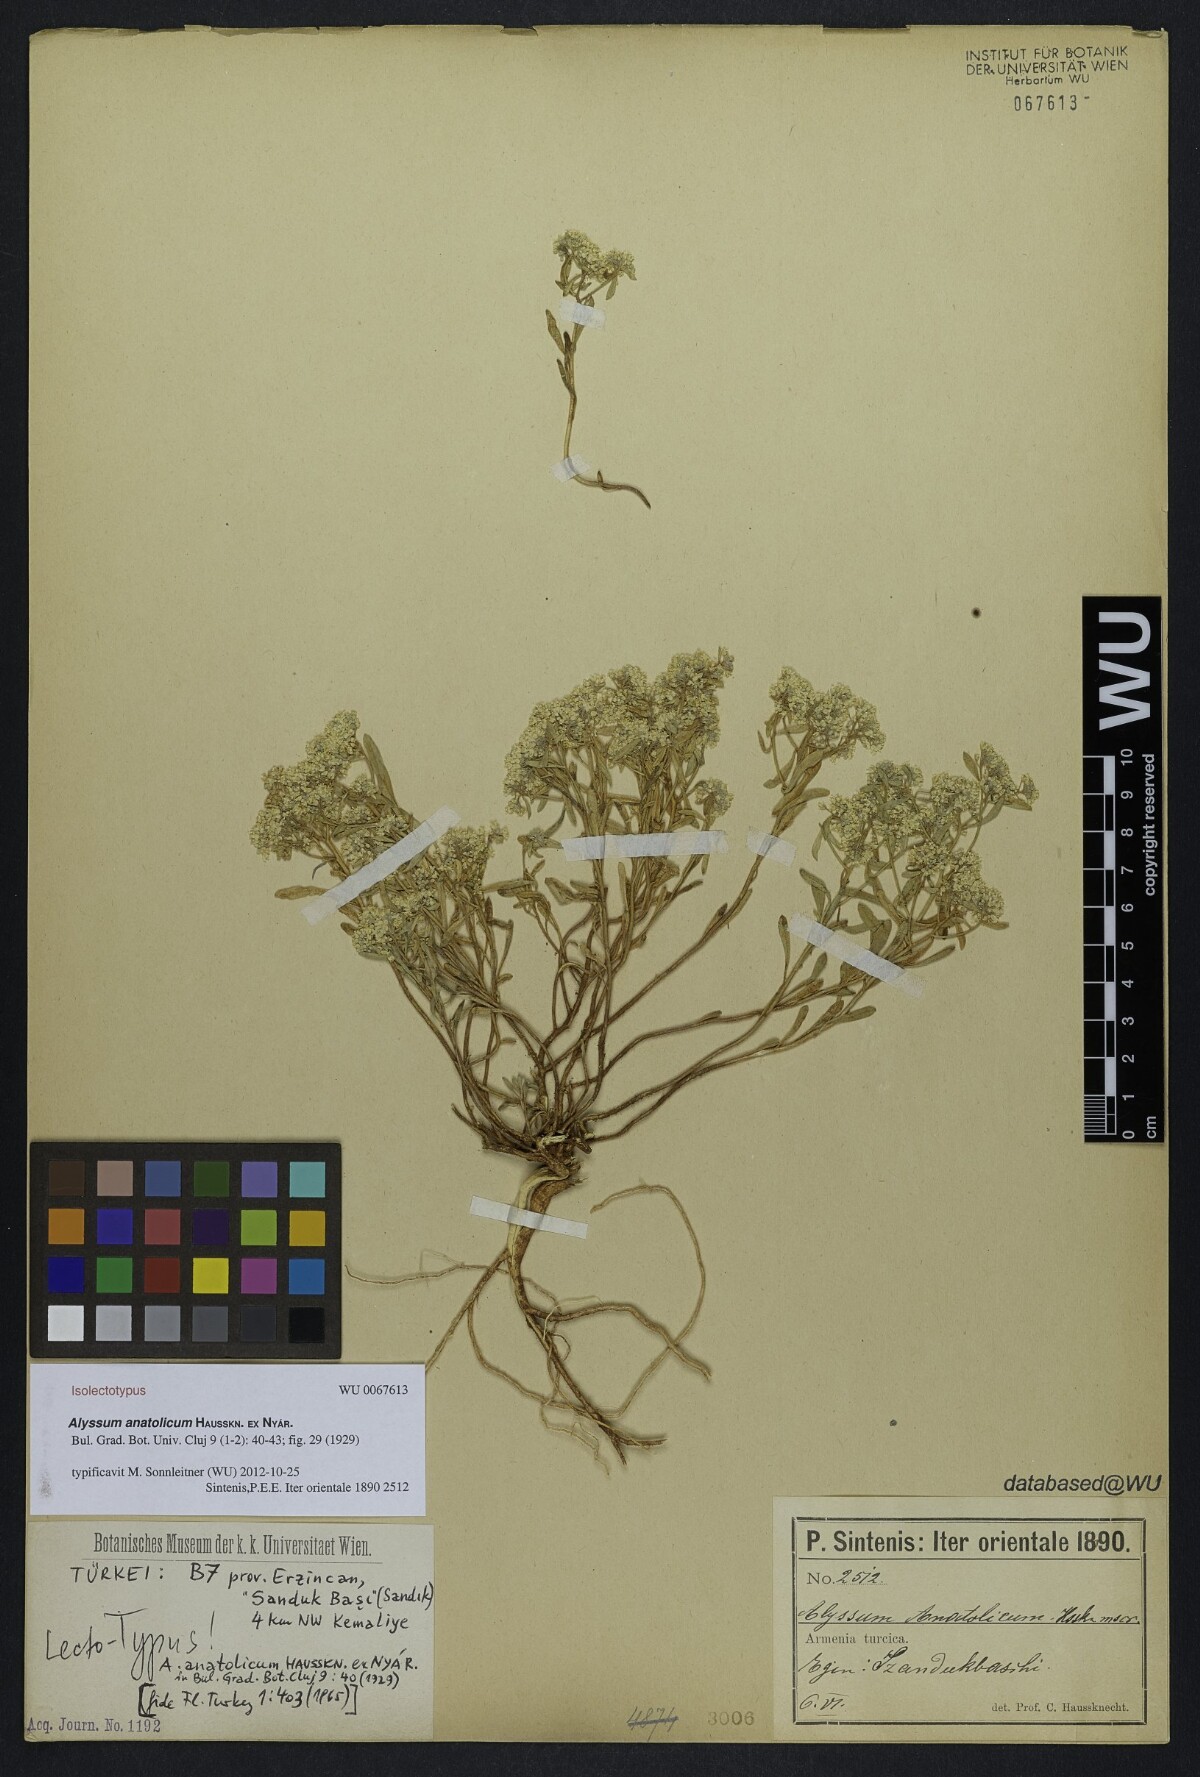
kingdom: Plantae
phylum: Tracheophyta
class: Magnoliopsida
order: Brassicales
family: Brassicaceae
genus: Odontarrhena
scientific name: Odontarrhena anatolica
